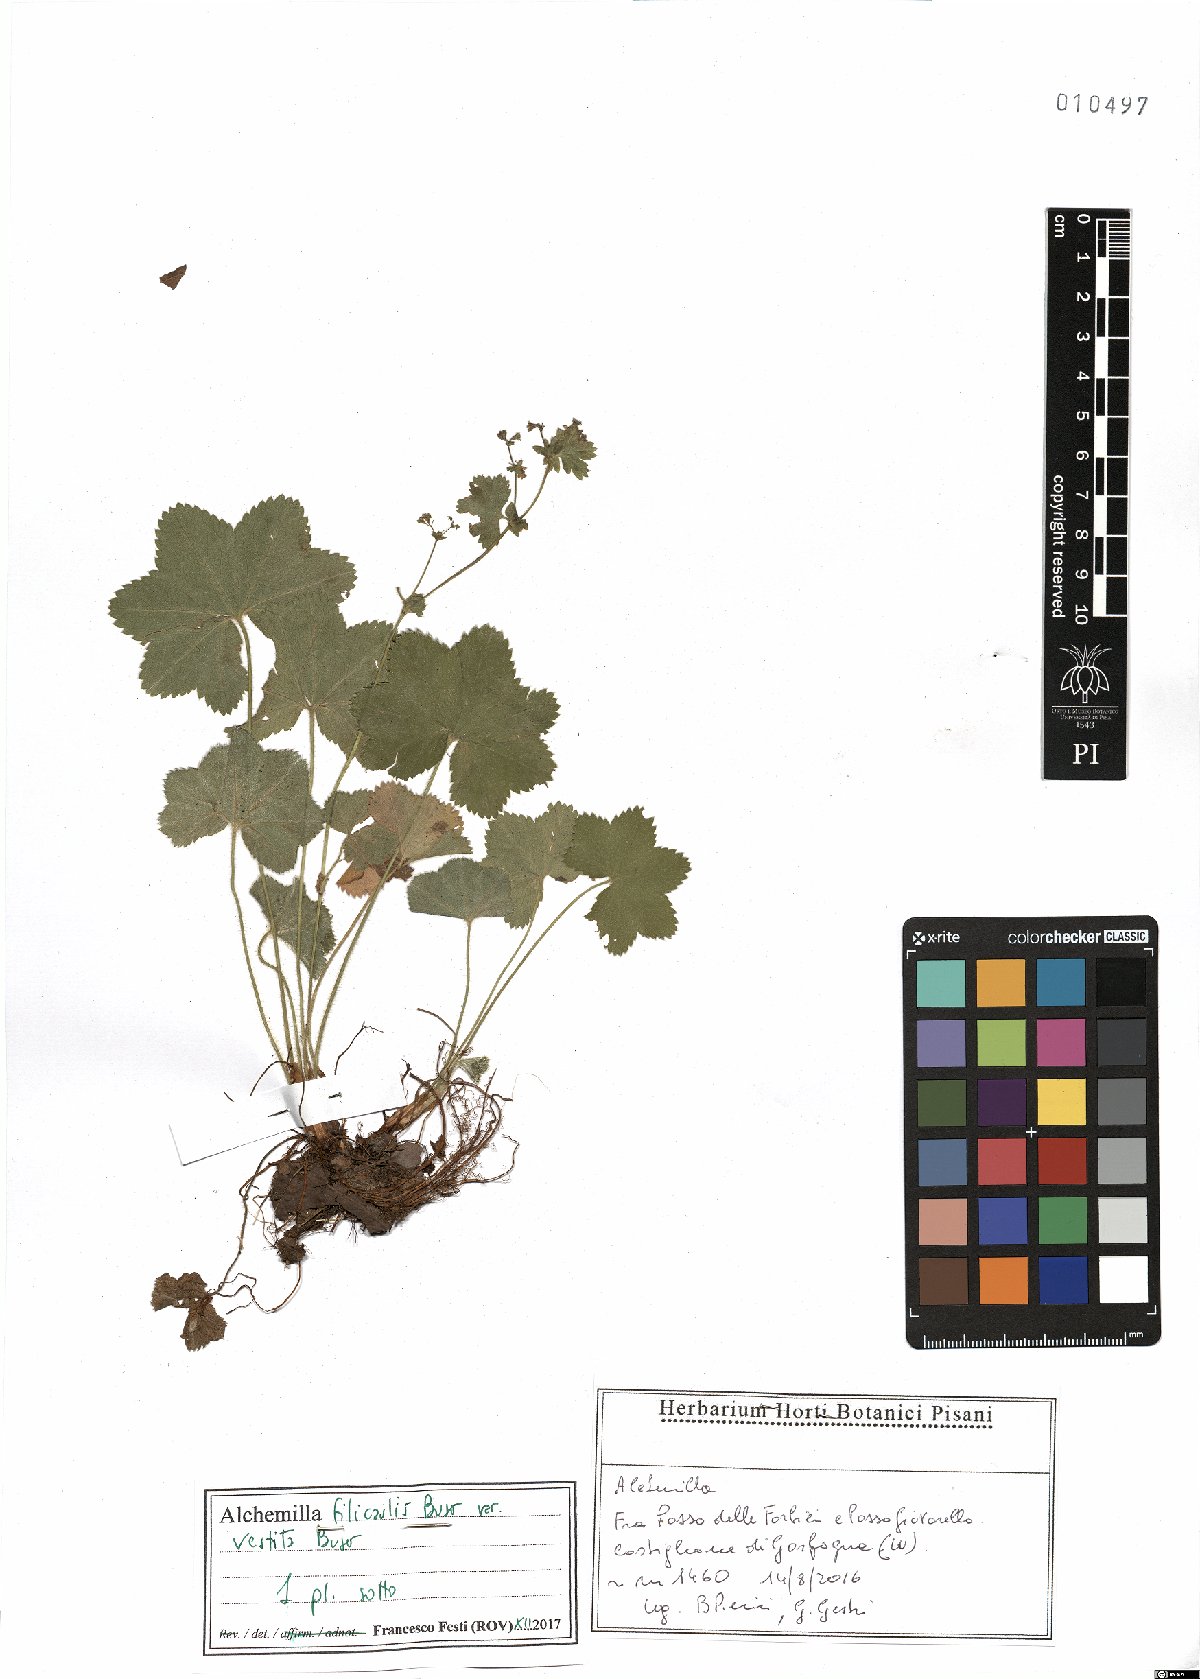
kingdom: Plantae
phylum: Tracheophyta
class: Magnoliopsida
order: Rosales
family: Rosaceae
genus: Alchemilla
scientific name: Alchemilla filicaulis
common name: Hairy lady's-mantle
